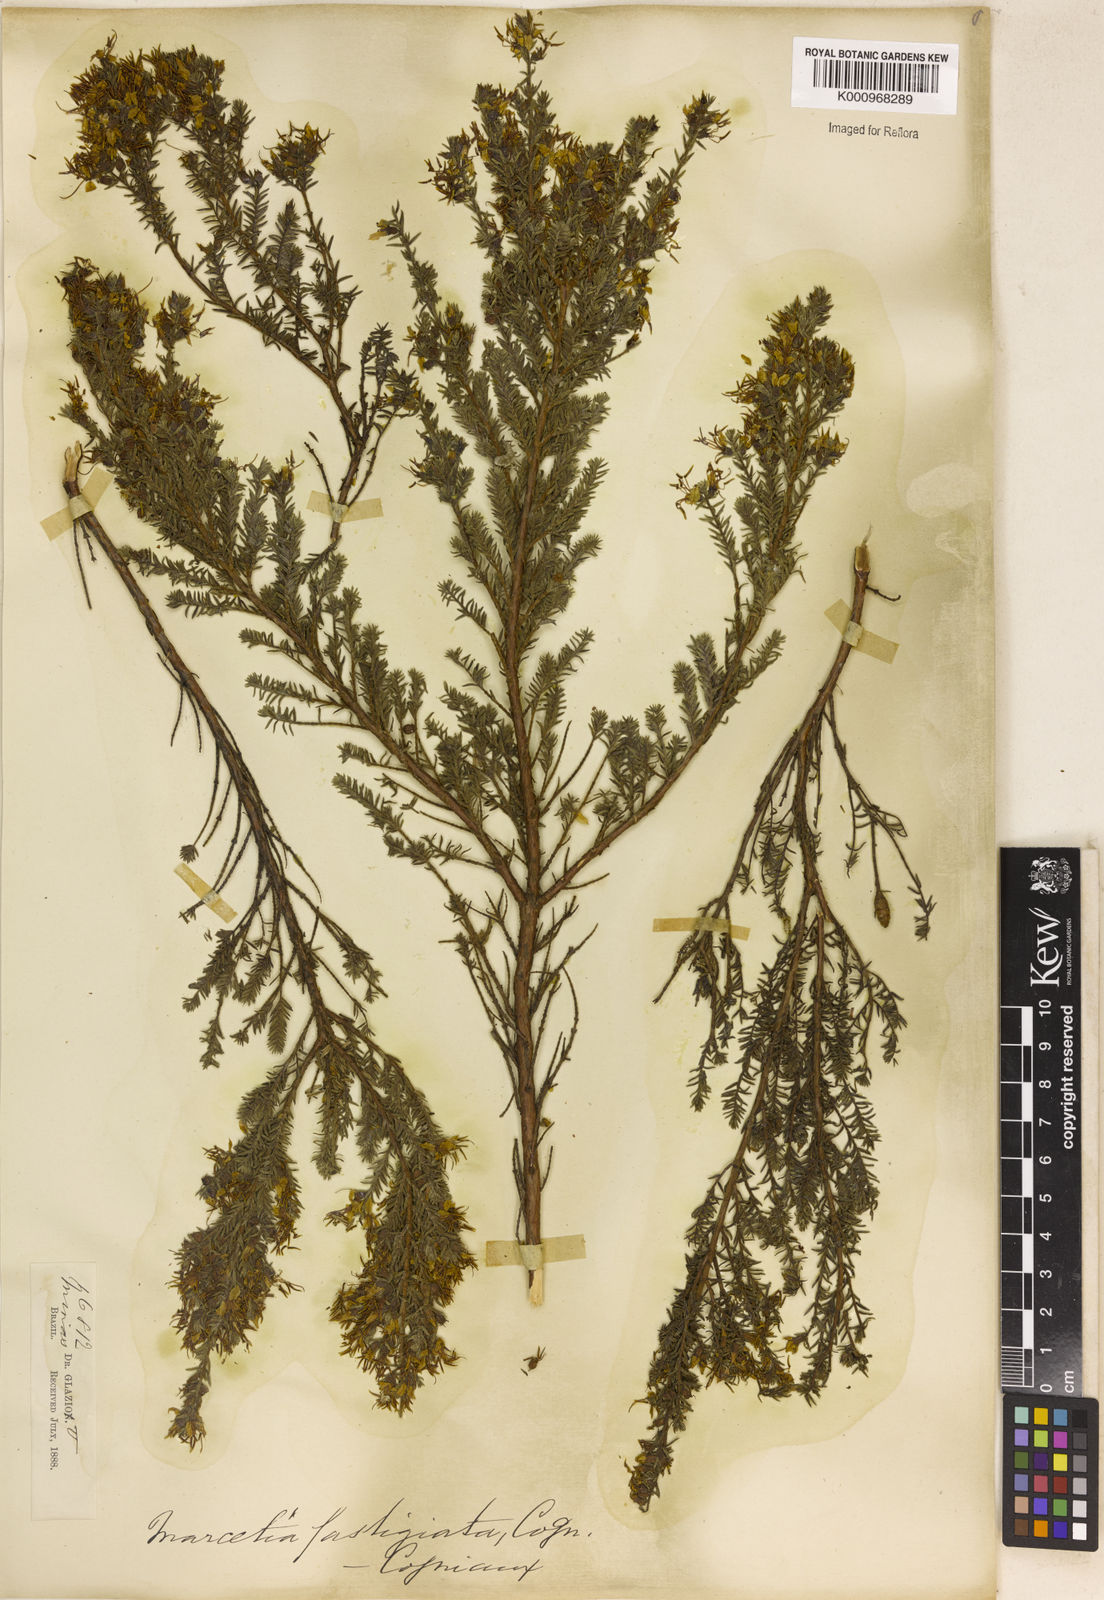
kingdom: Plantae
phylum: Tracheophyta
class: Magnoliopsida
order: Myrtales
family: Melastomataceae
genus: Marcetia
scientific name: Marcetia taxifolia
